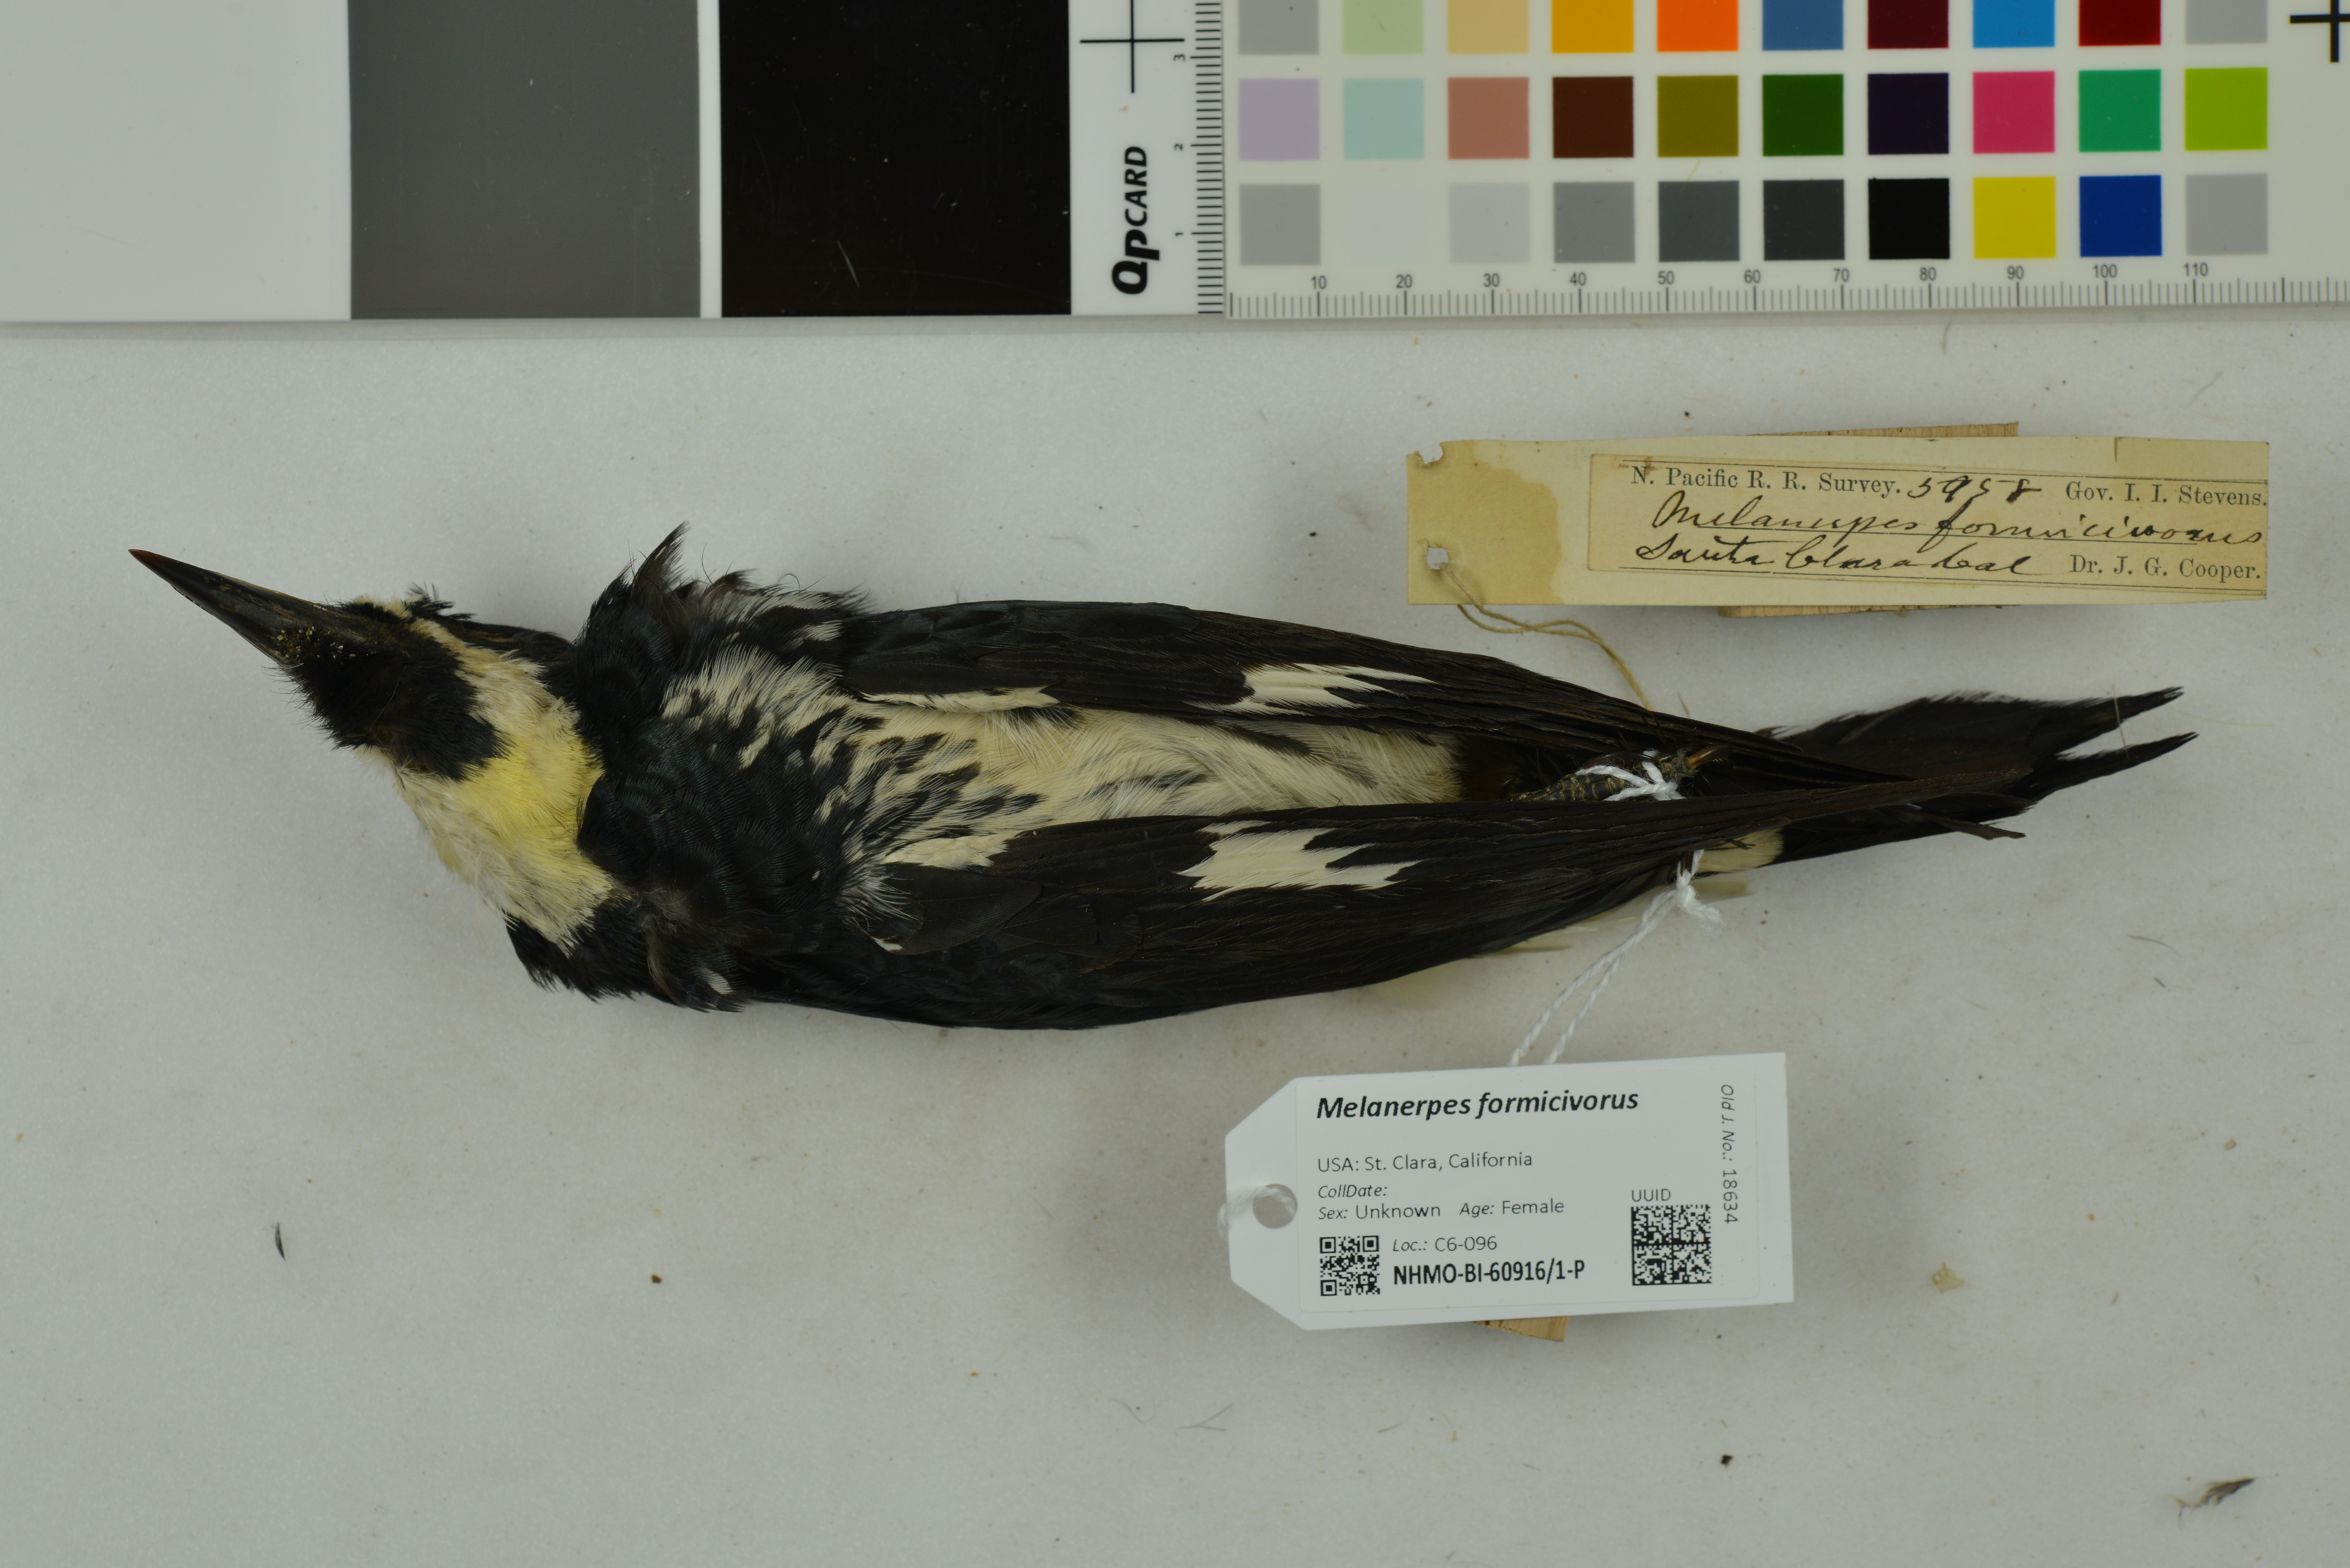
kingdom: Animalia
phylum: Chordata
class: Aves
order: Piciformes
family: Picidae
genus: Melanerpes
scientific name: Melanerpes formicivorus
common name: Acorn woodpecker
